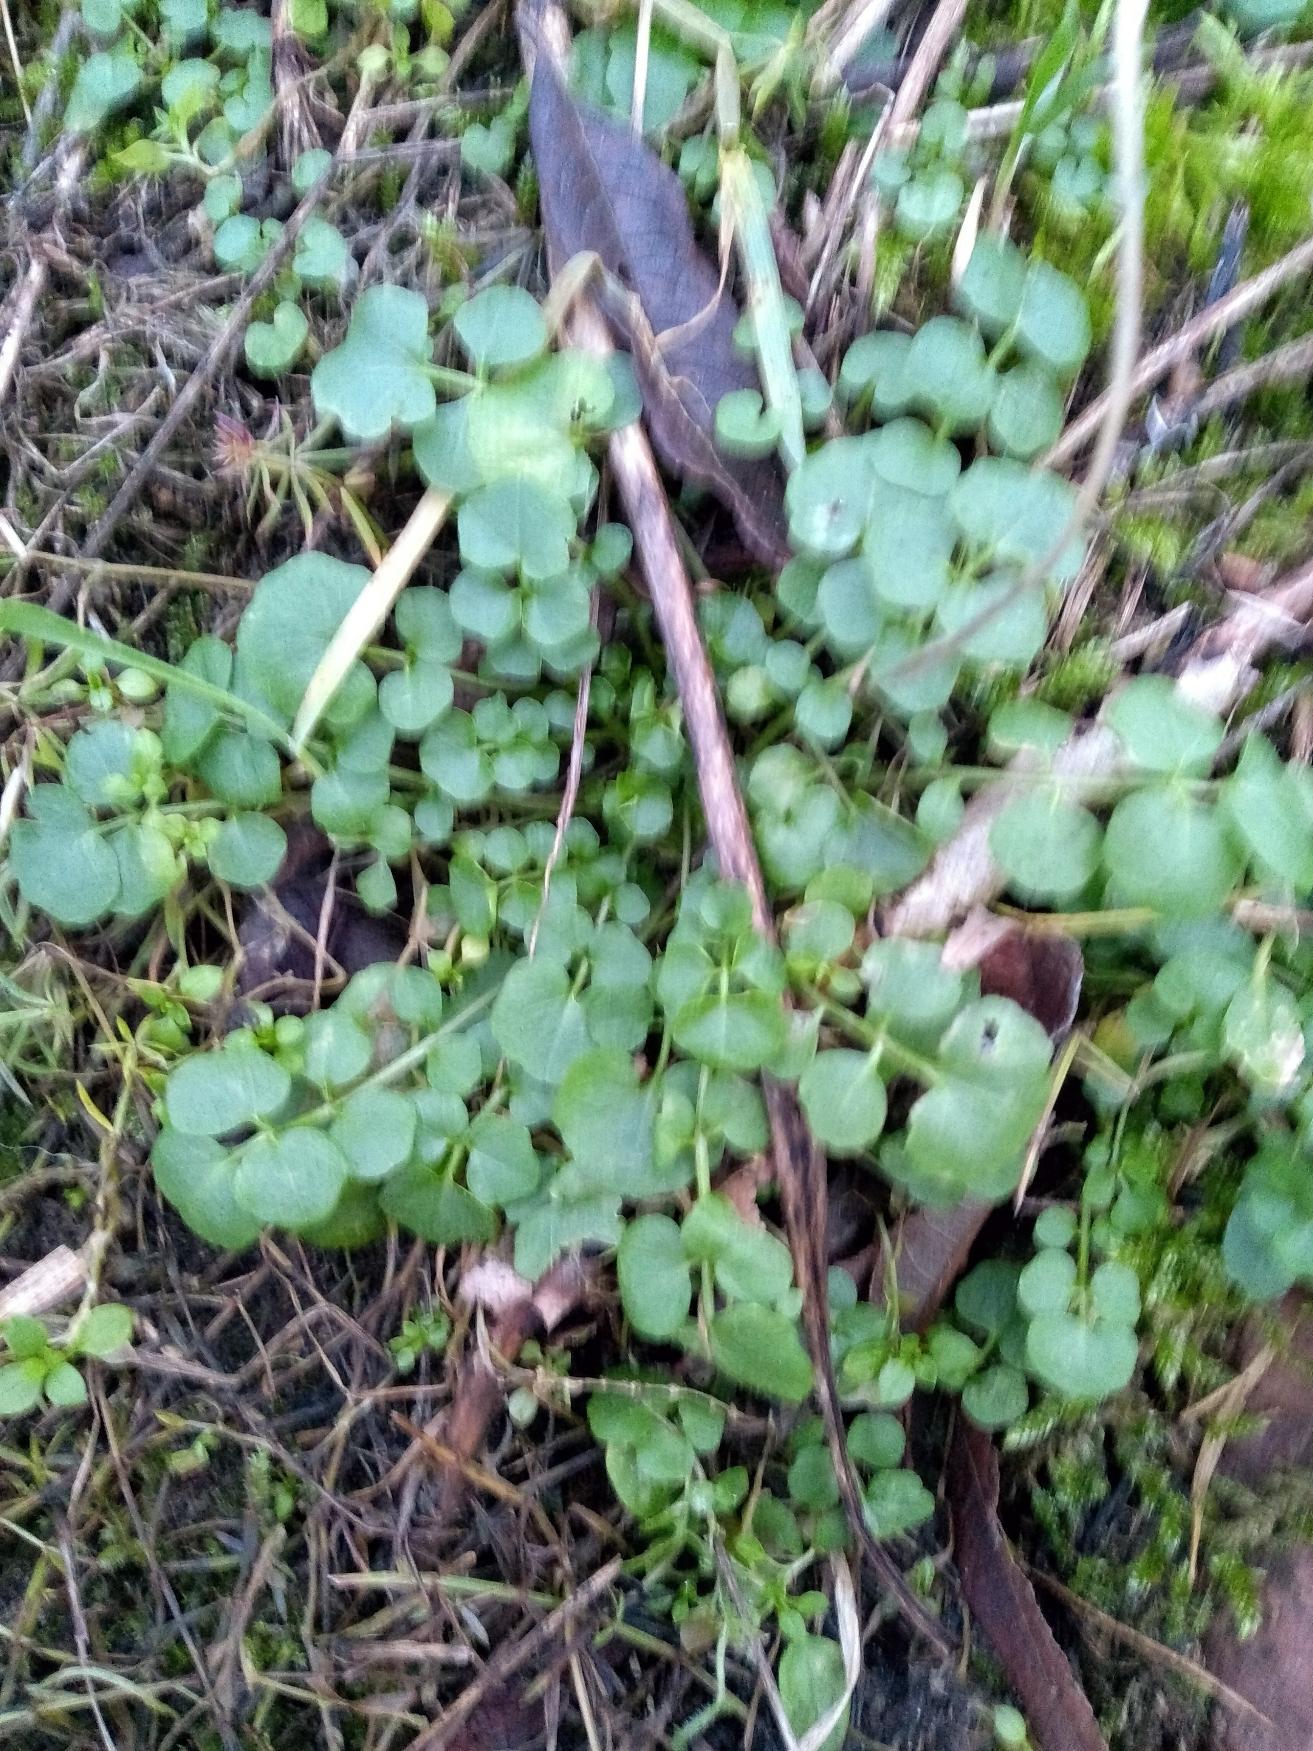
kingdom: Plantae
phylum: Tracheophyta
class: Magnoliopsida
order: Brassicales
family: Brassicaceae
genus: Cardamine
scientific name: Cardamine hirsuta
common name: Roset-springklap
